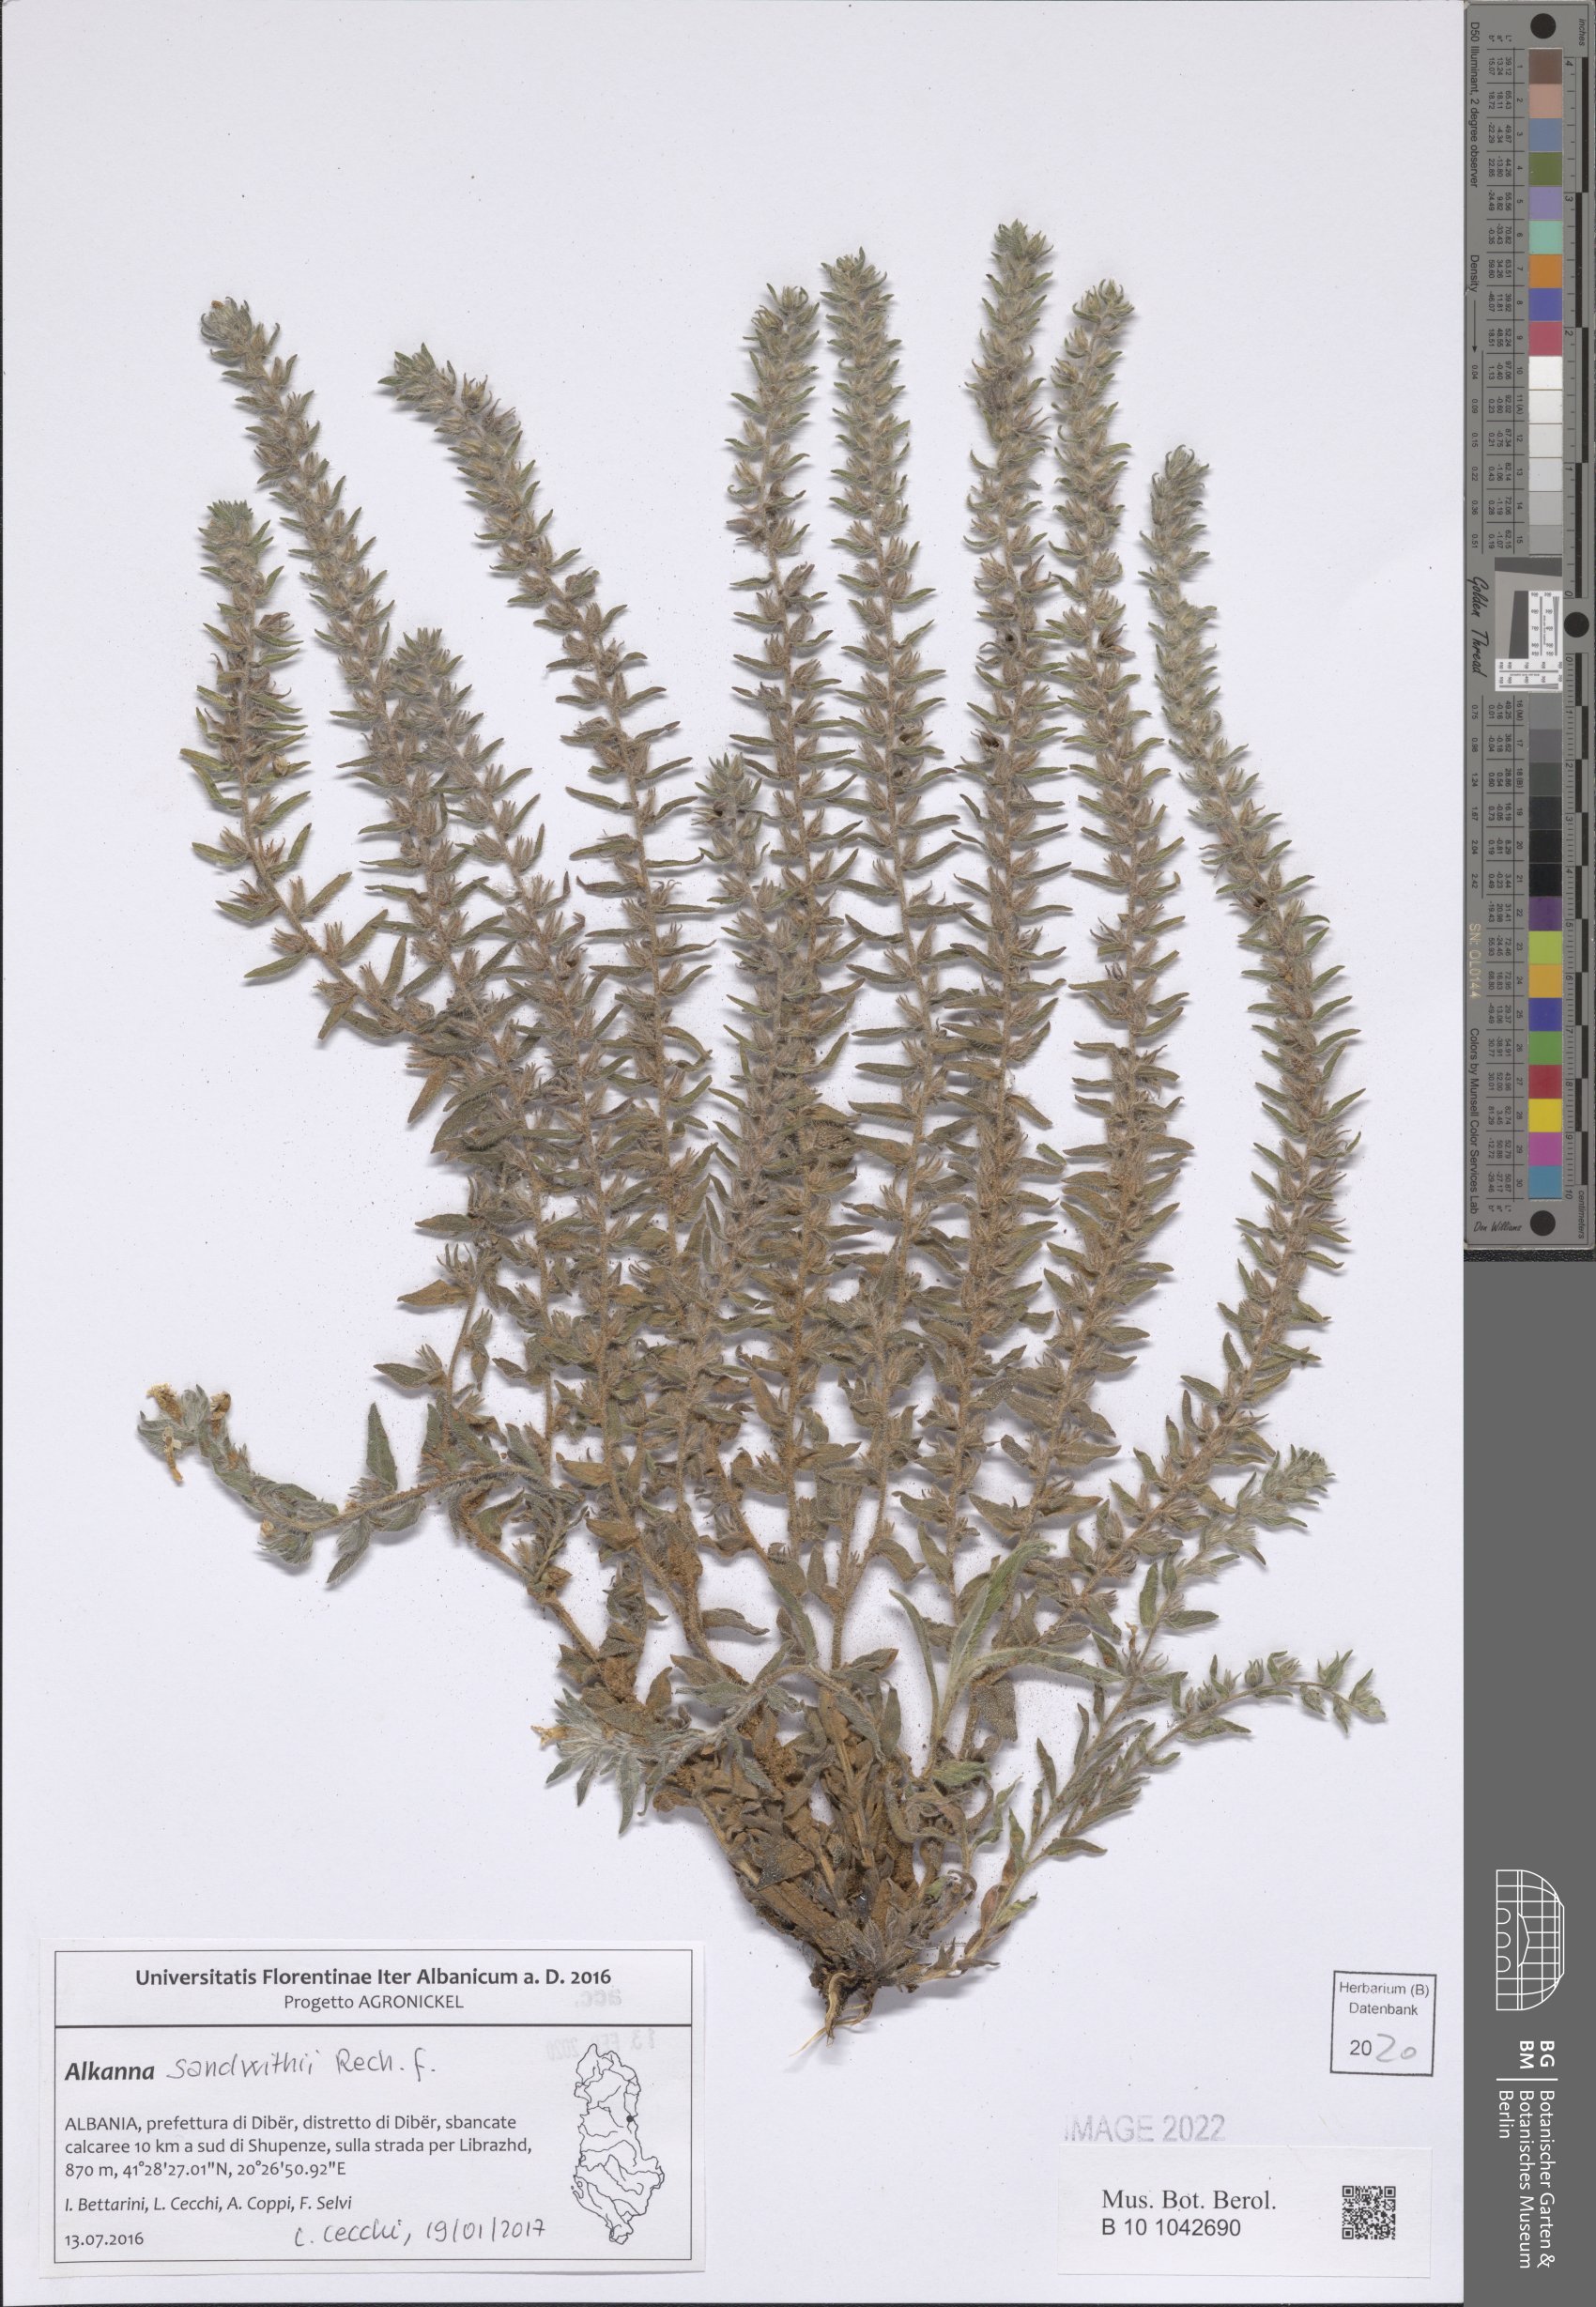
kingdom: Plantae
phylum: Tracheophyta
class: Magnoliopsida
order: Boraginales
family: Boraginaceae
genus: Alkanna
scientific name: Alkanna sandwithii
